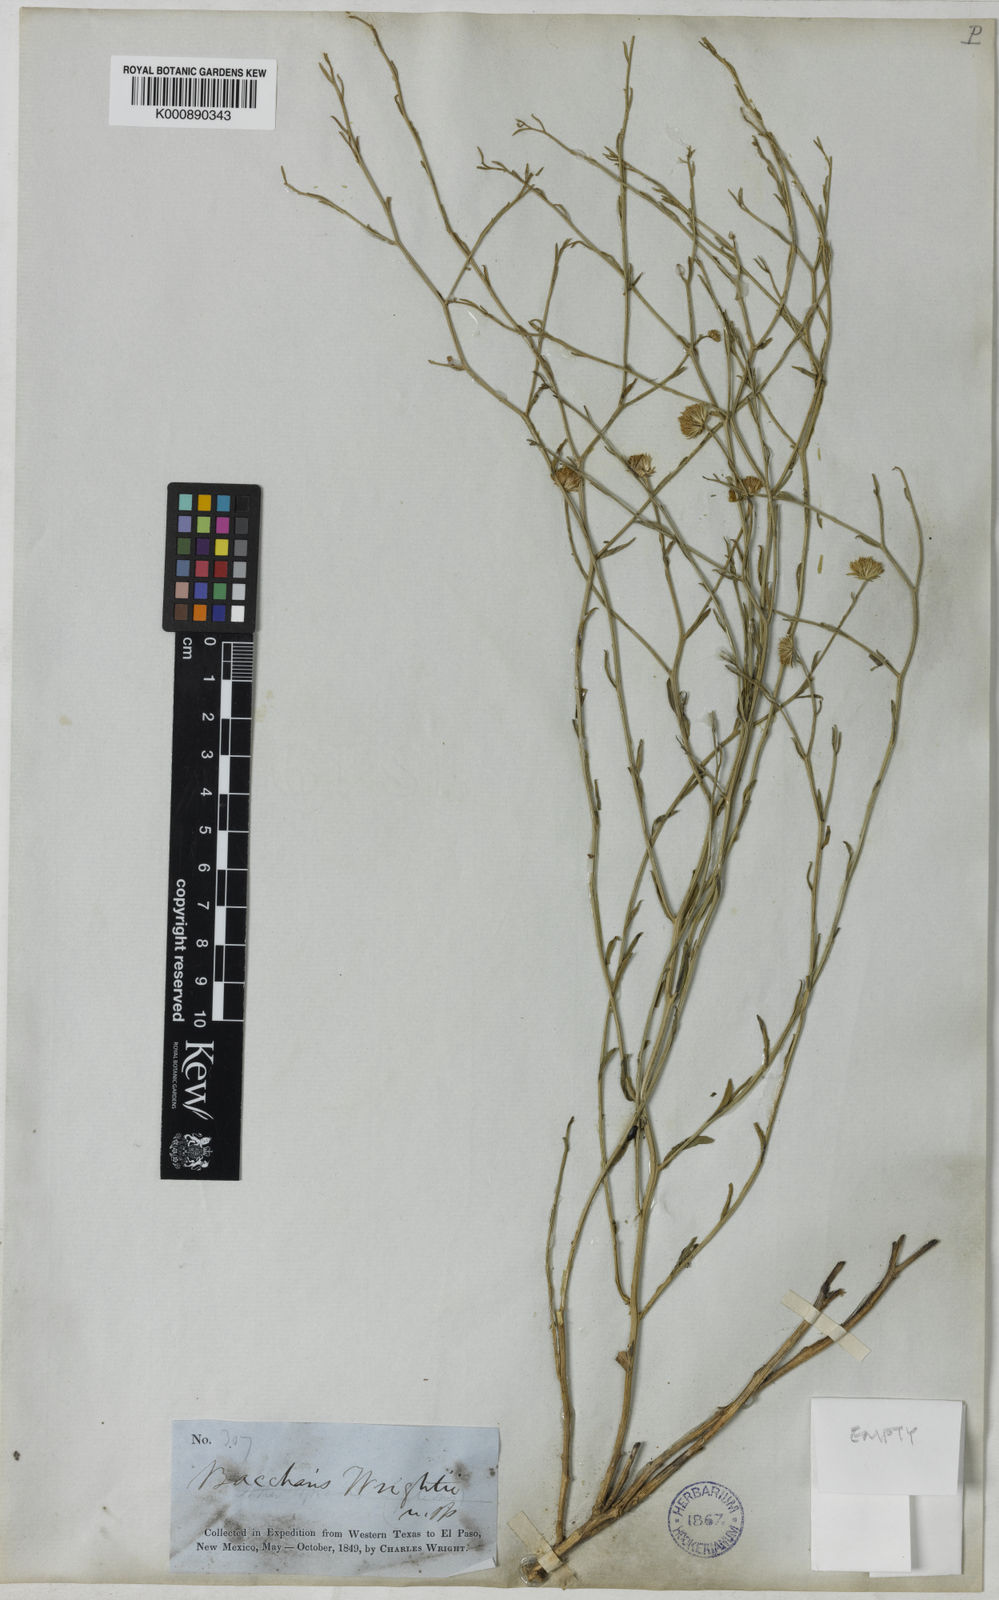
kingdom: Plantae
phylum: Tracheophyta
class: Magnoliopsida
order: Asterales
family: Asteraceae
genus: Baccharis
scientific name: Baccharis wrightii
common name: Wright's baccharis
